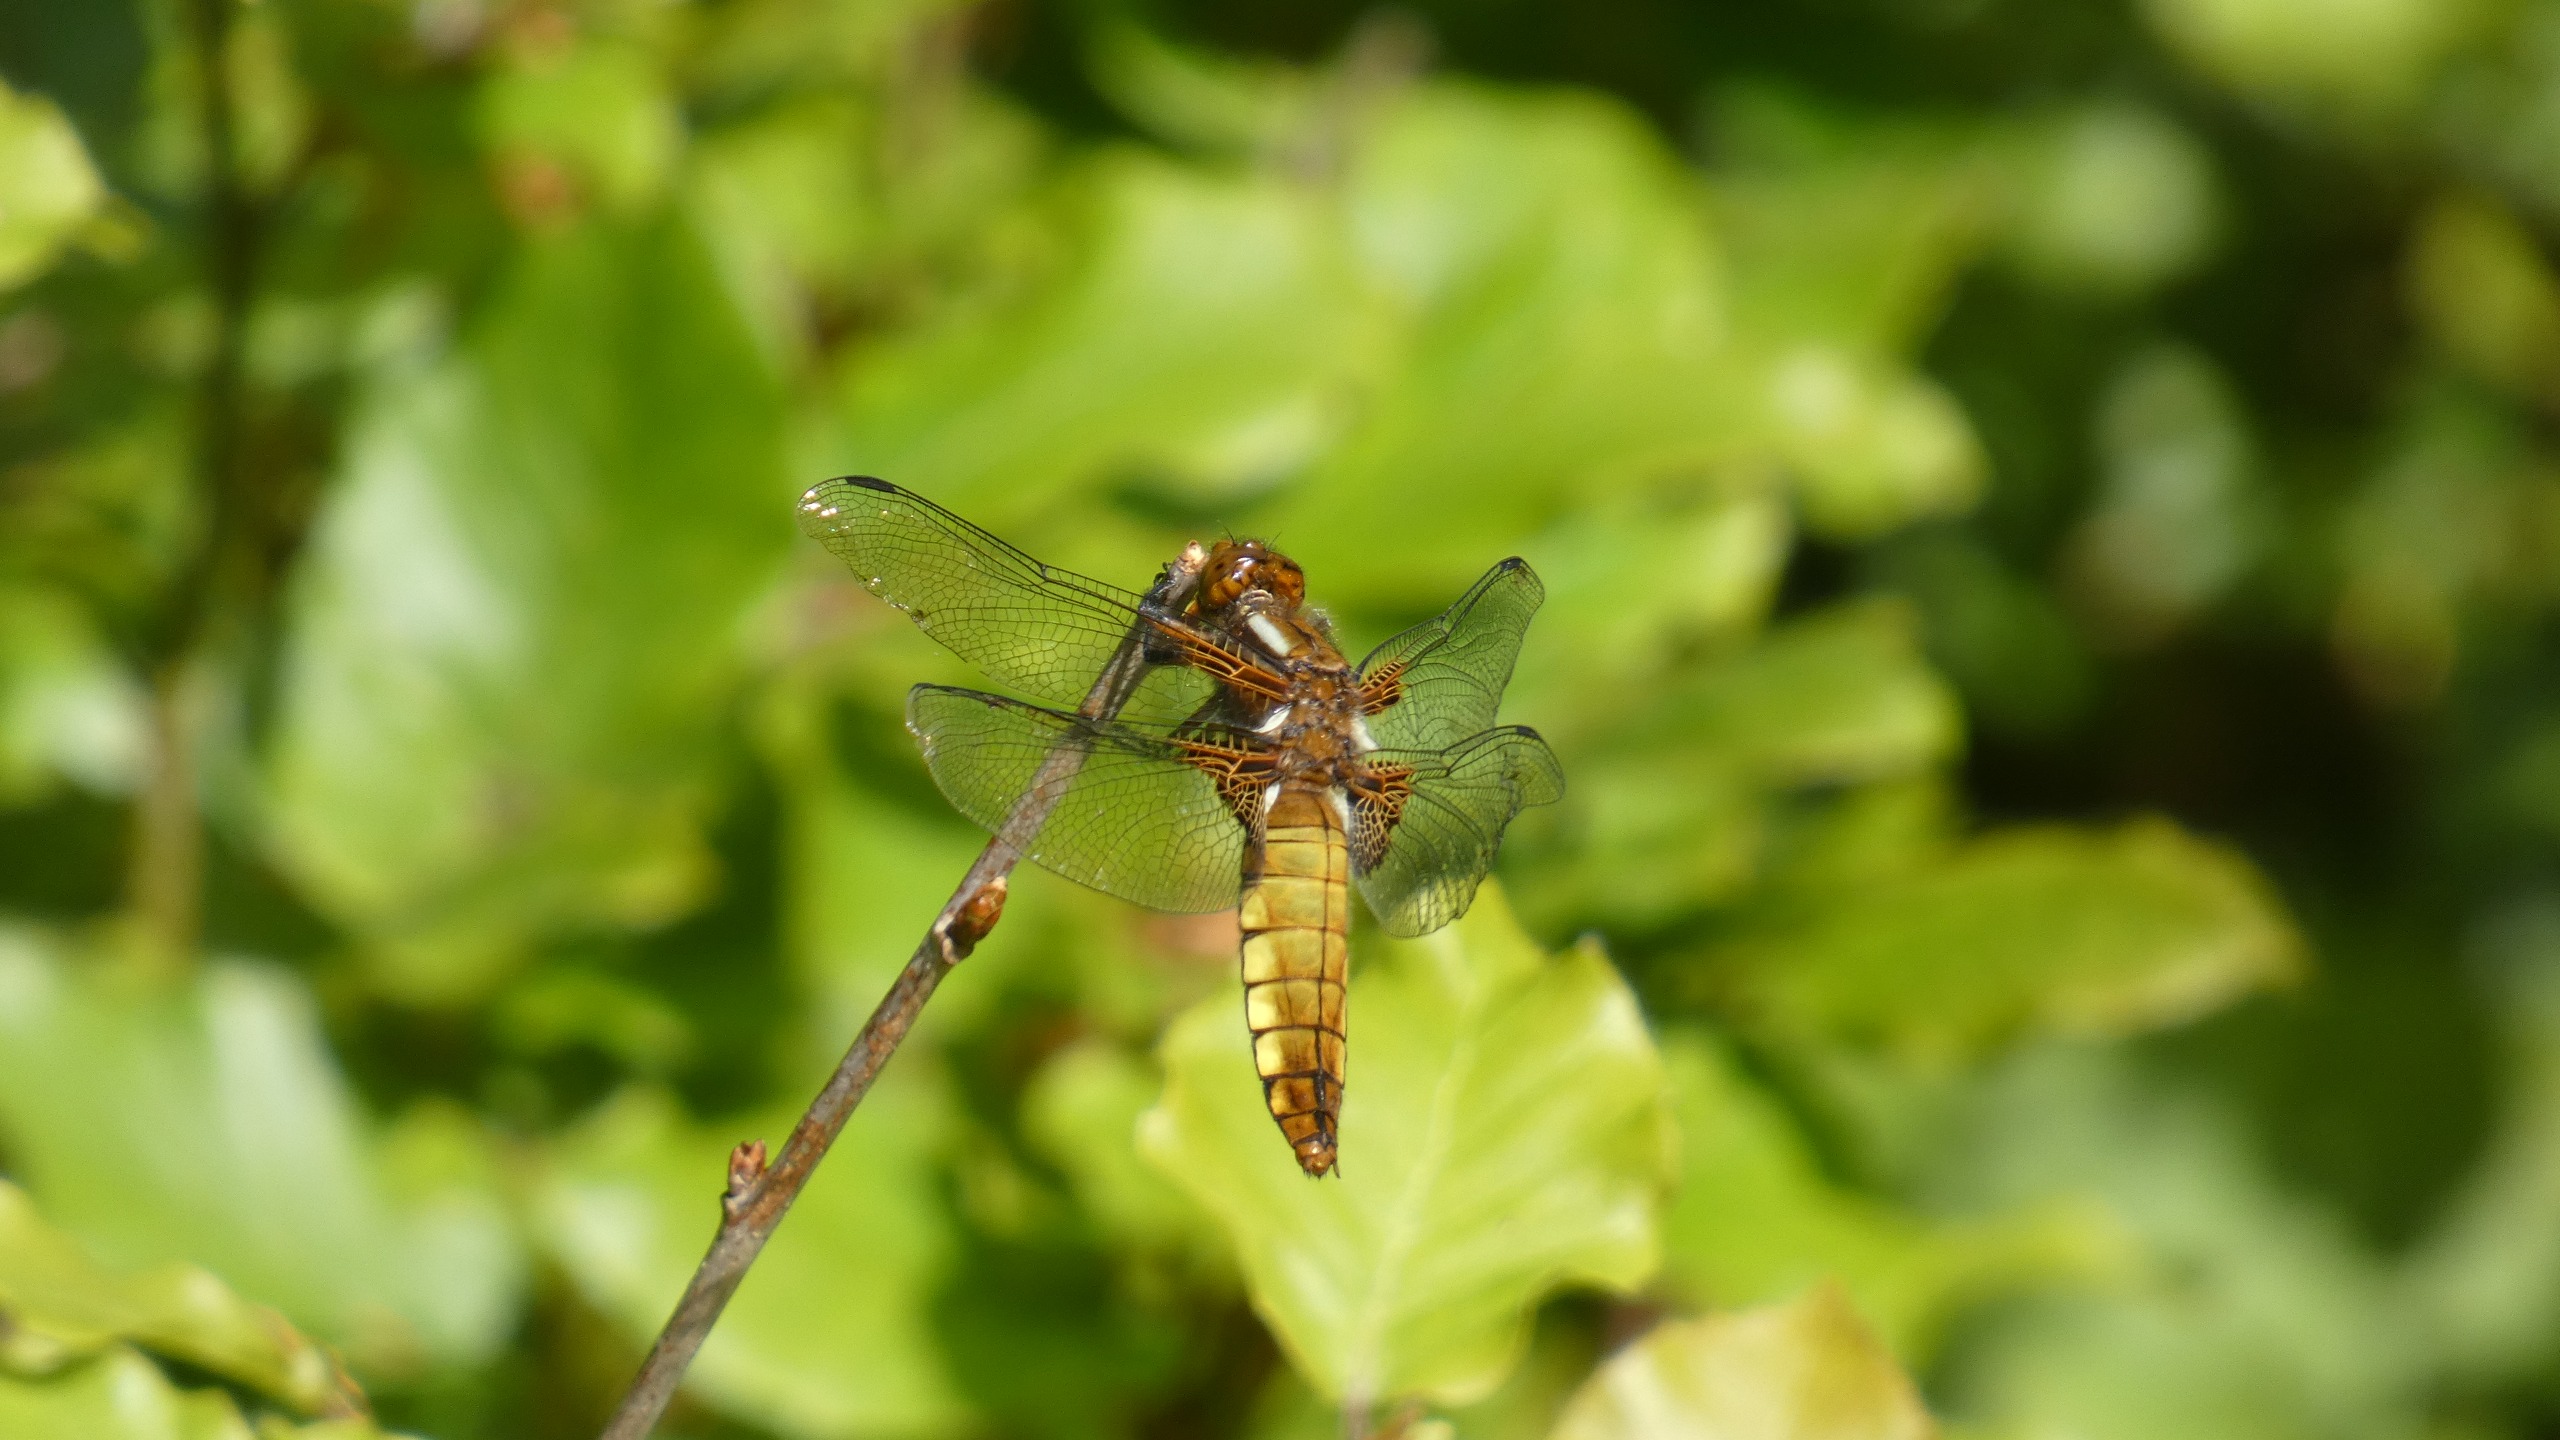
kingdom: Animalia
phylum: Arthropoda
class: Insecta
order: Odonata
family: Libellulidae
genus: Libellula
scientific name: Libellula depressa
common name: Blå libel
